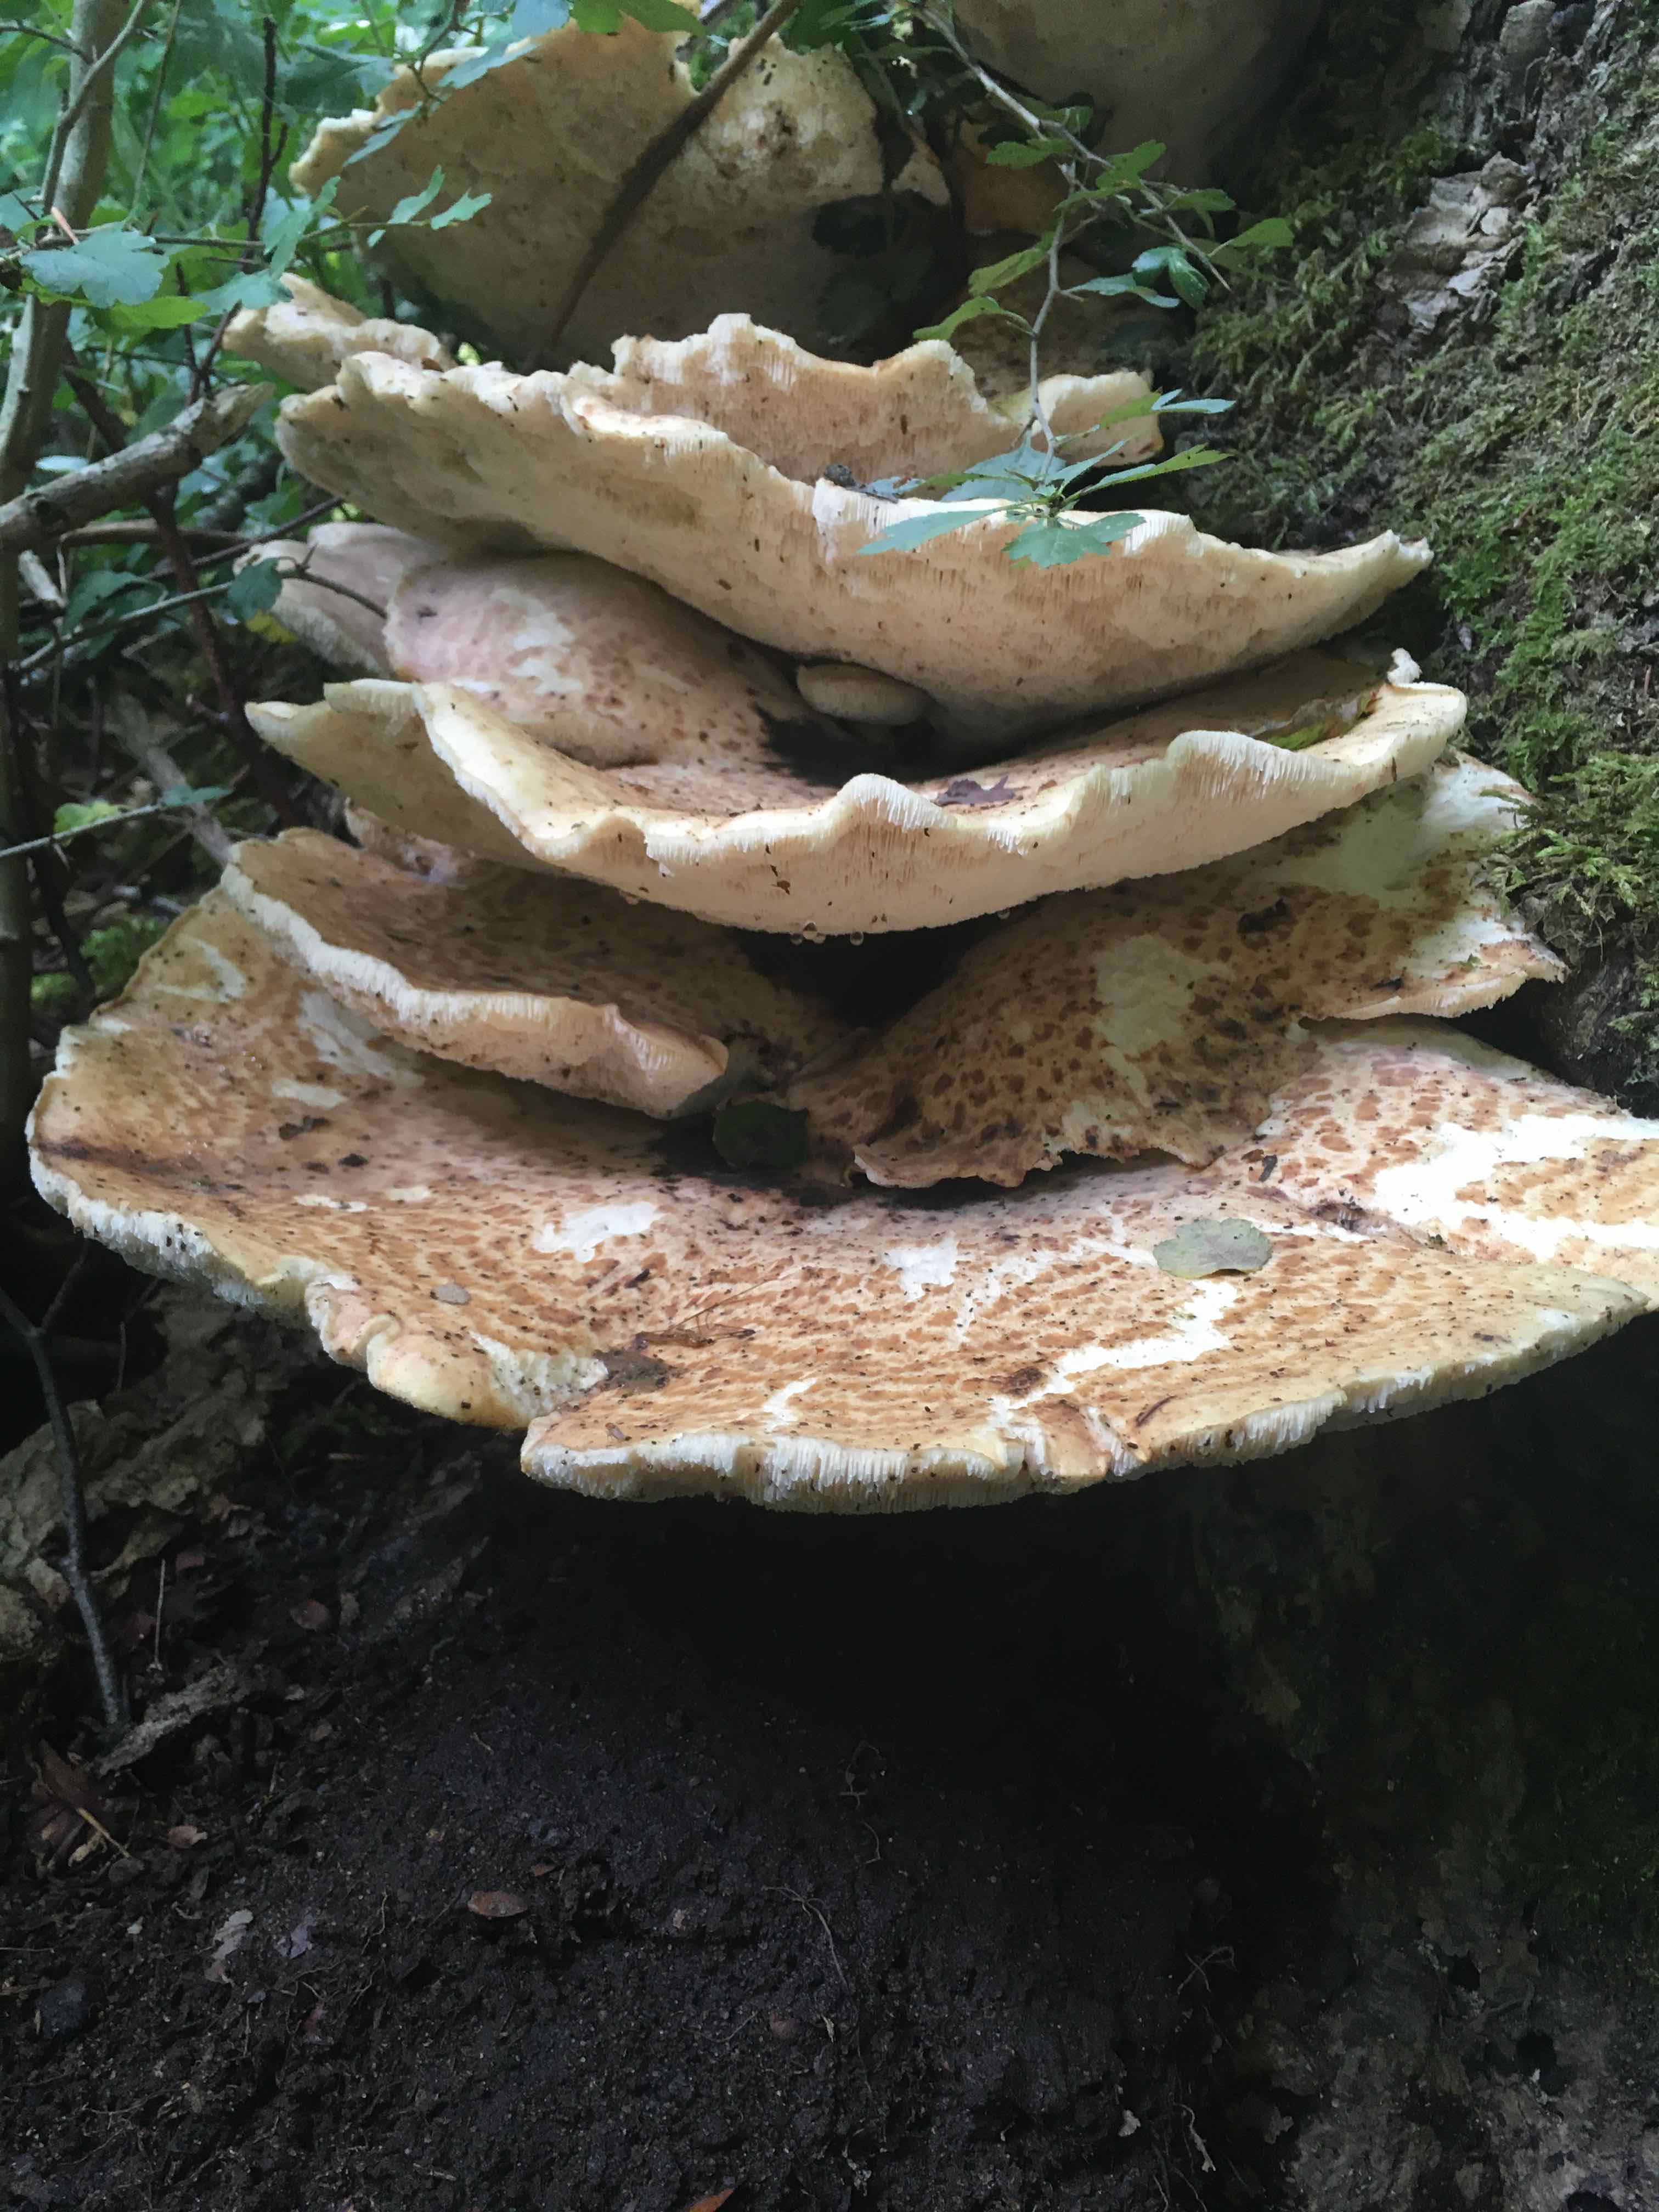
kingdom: Fungi
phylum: Basidiomycota
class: Agaricomycetes
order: Polyporales
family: Polyporaceae
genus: Cerioporus
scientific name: Cerioporus squamosus
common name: skællet stilkporesvamp
